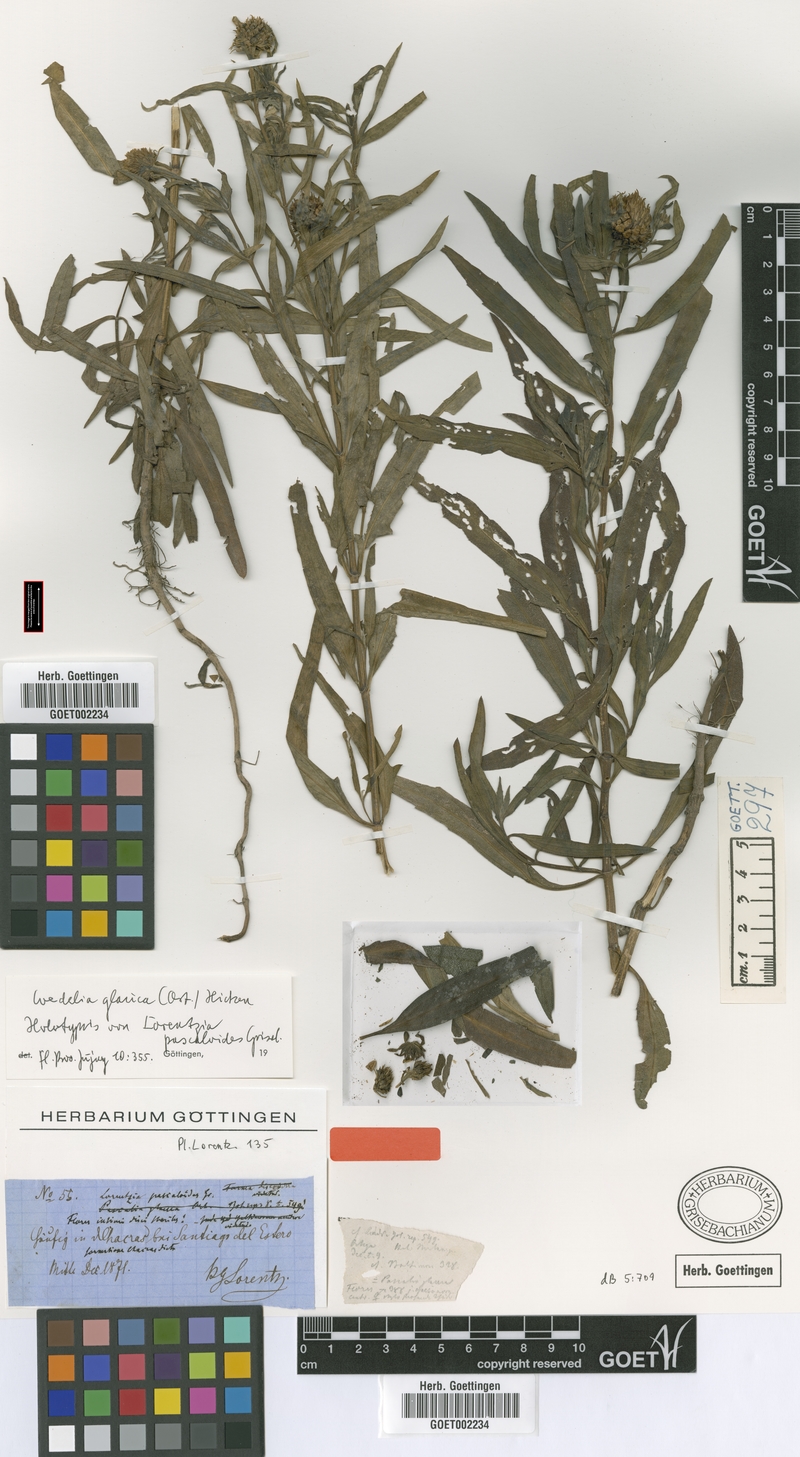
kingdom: Plantae
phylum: Tracheophyta
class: Magnoliopsida
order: Asterales
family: Asteraceae
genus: Pascalia
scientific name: Pascalia glauca
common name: Beach creeping oxeye
